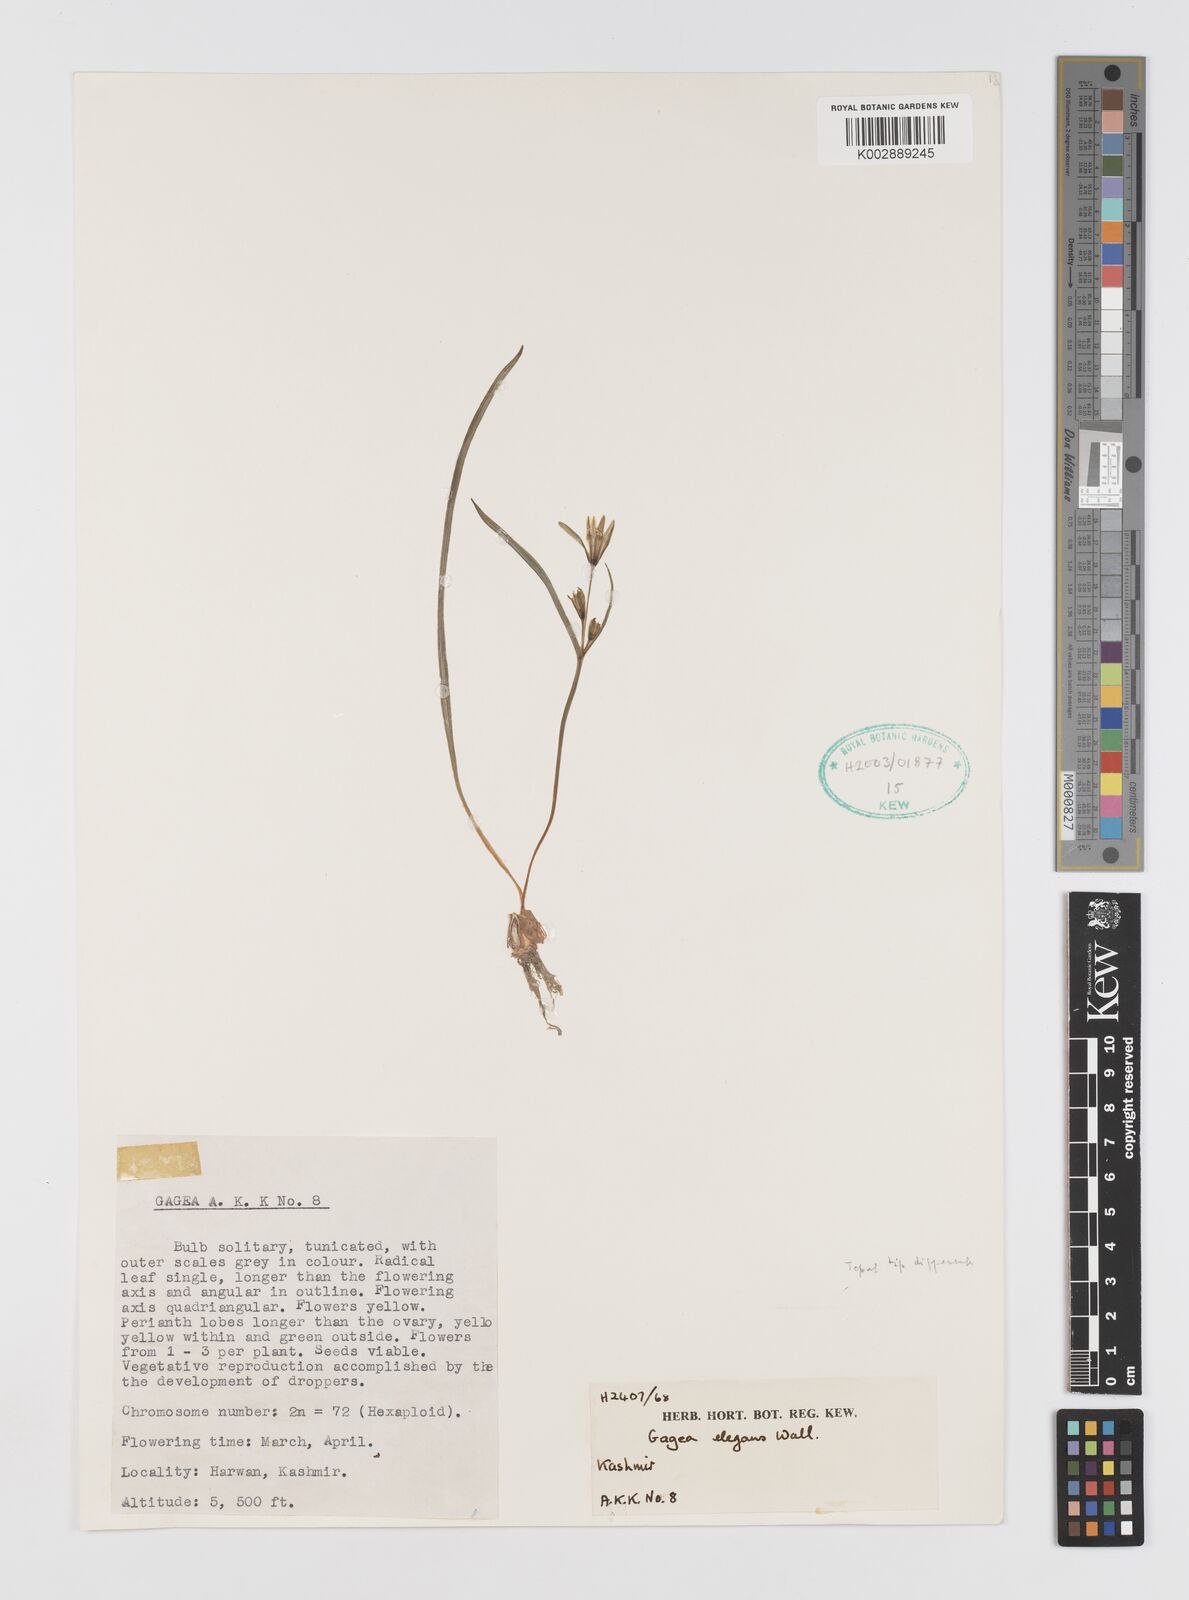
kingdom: Plantae
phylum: Tracheophyta
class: Liliopsida
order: Liliales
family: Liliaceae
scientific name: Liliaceae
